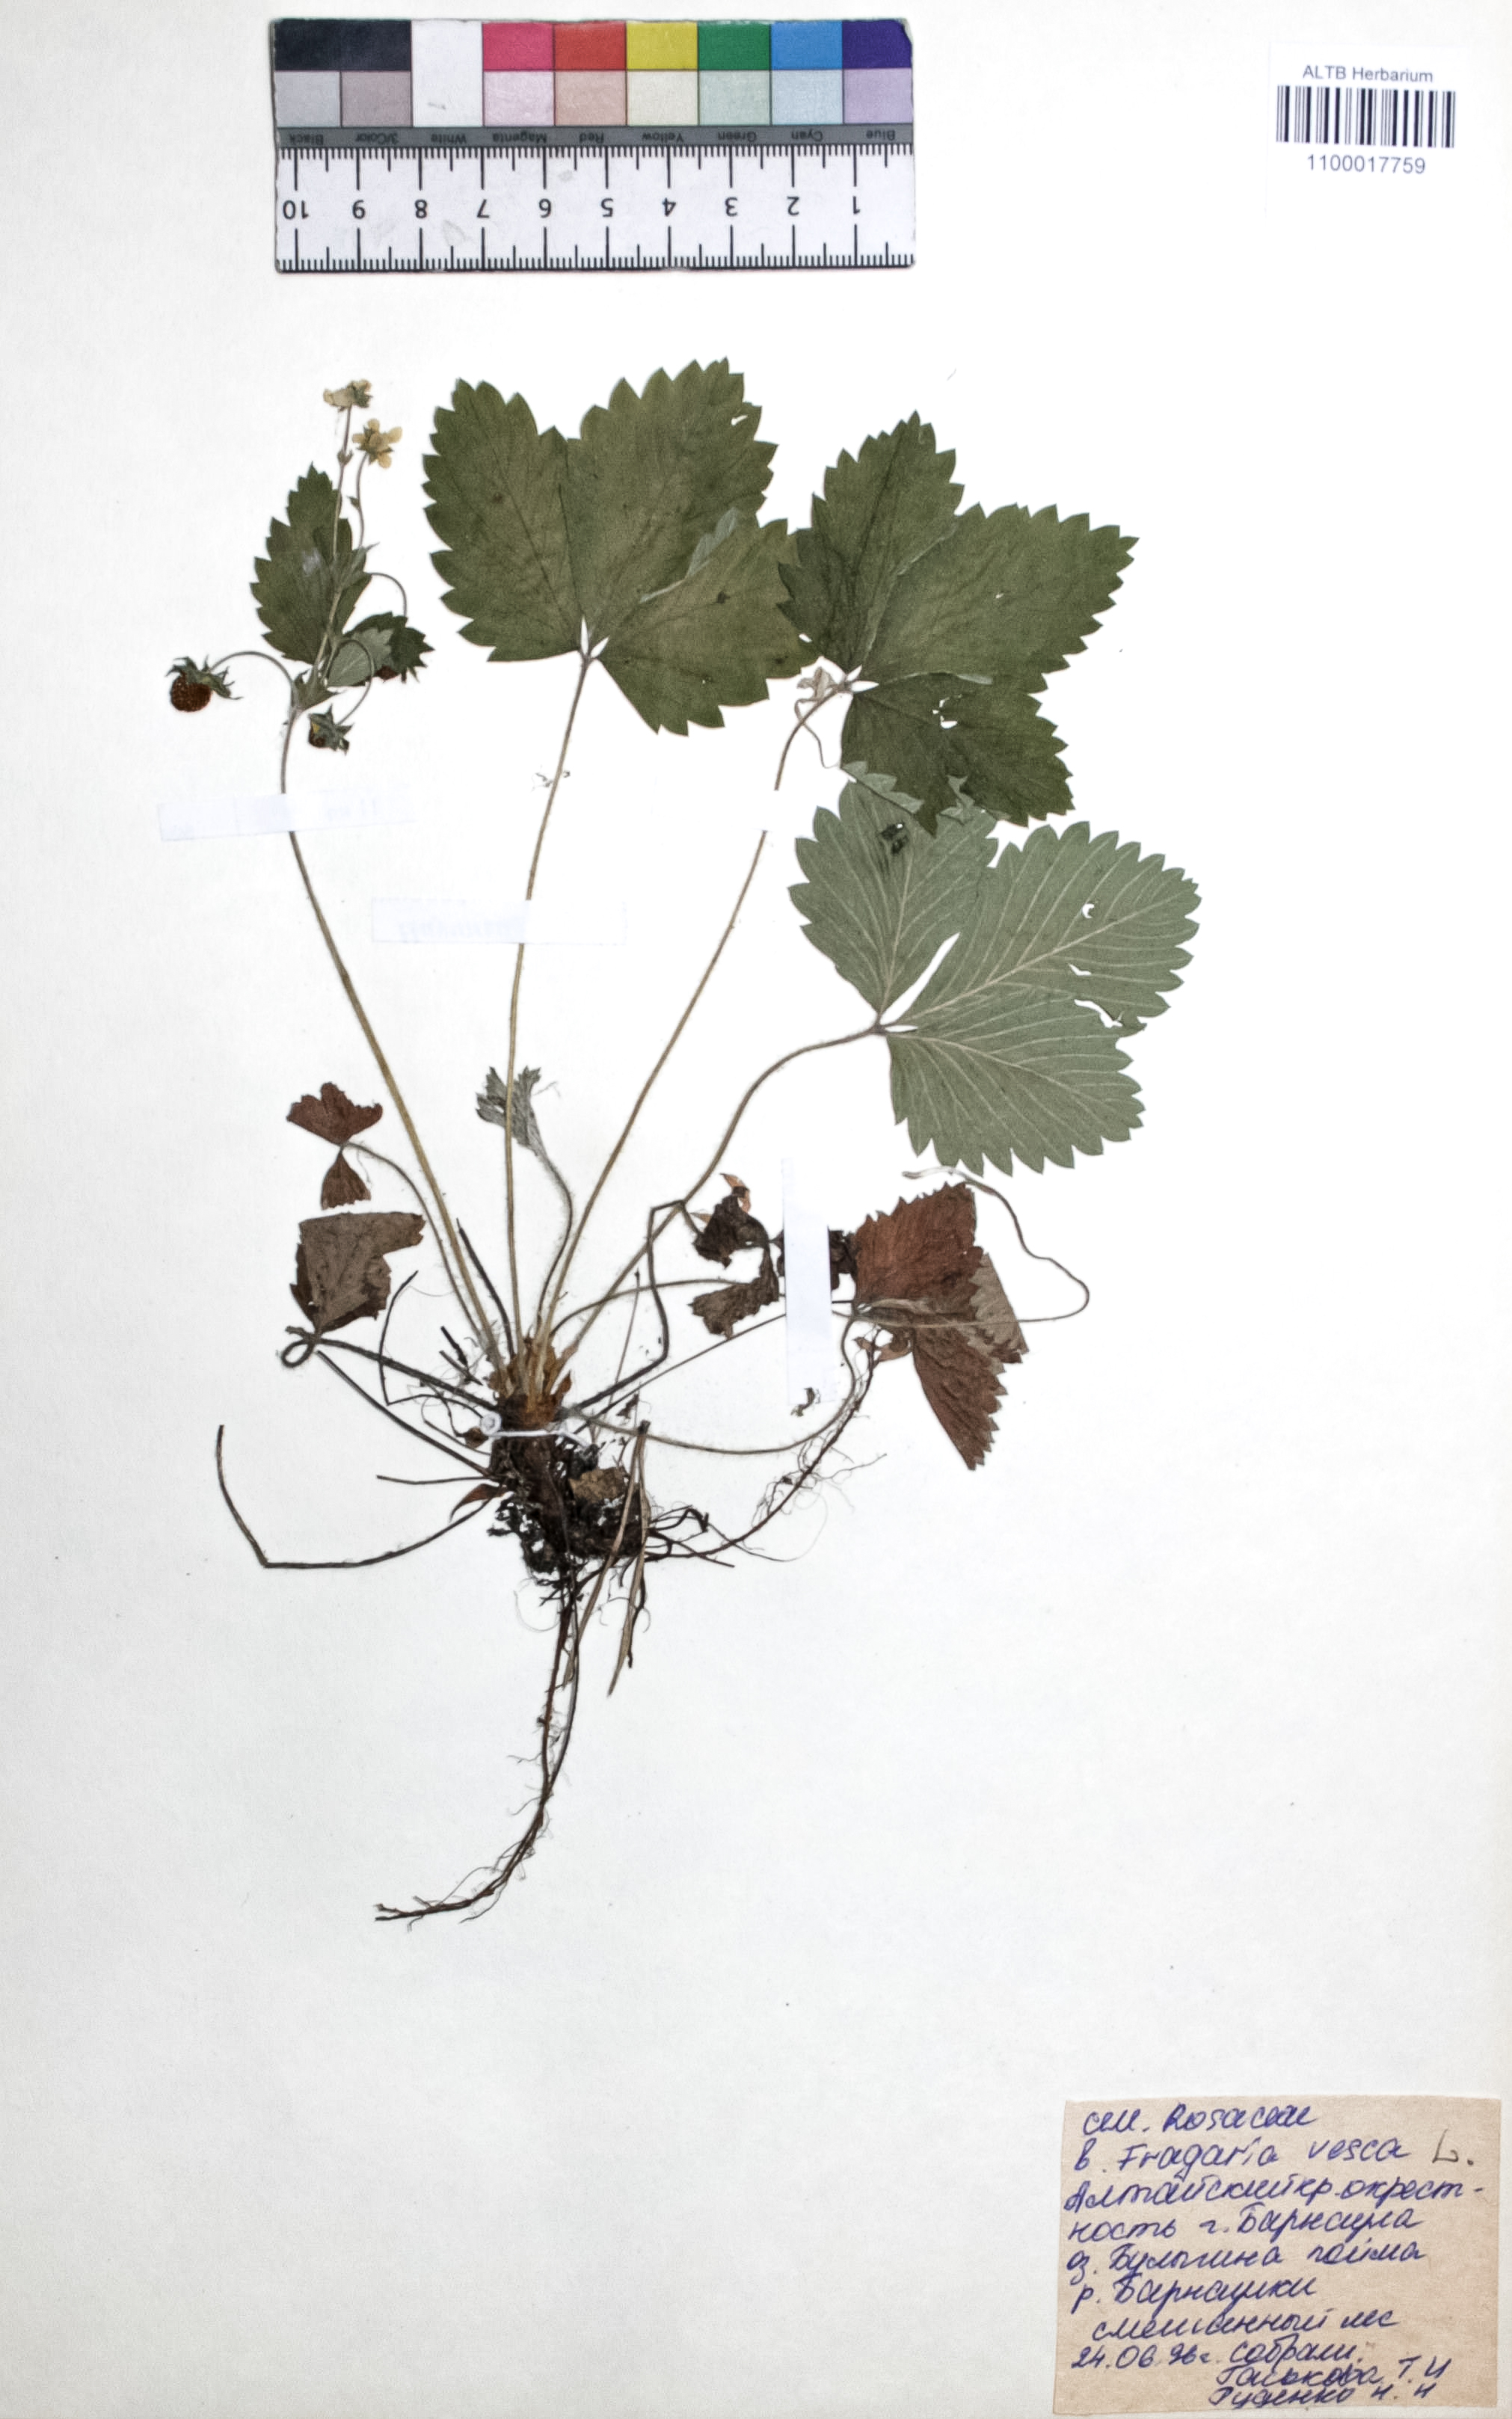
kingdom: Plantae
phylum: Tracheophyta
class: Magnoliopsida
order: Rosales
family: Rosaceae
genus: Fragaria
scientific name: Fragaria vesca
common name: Wild strawberry
